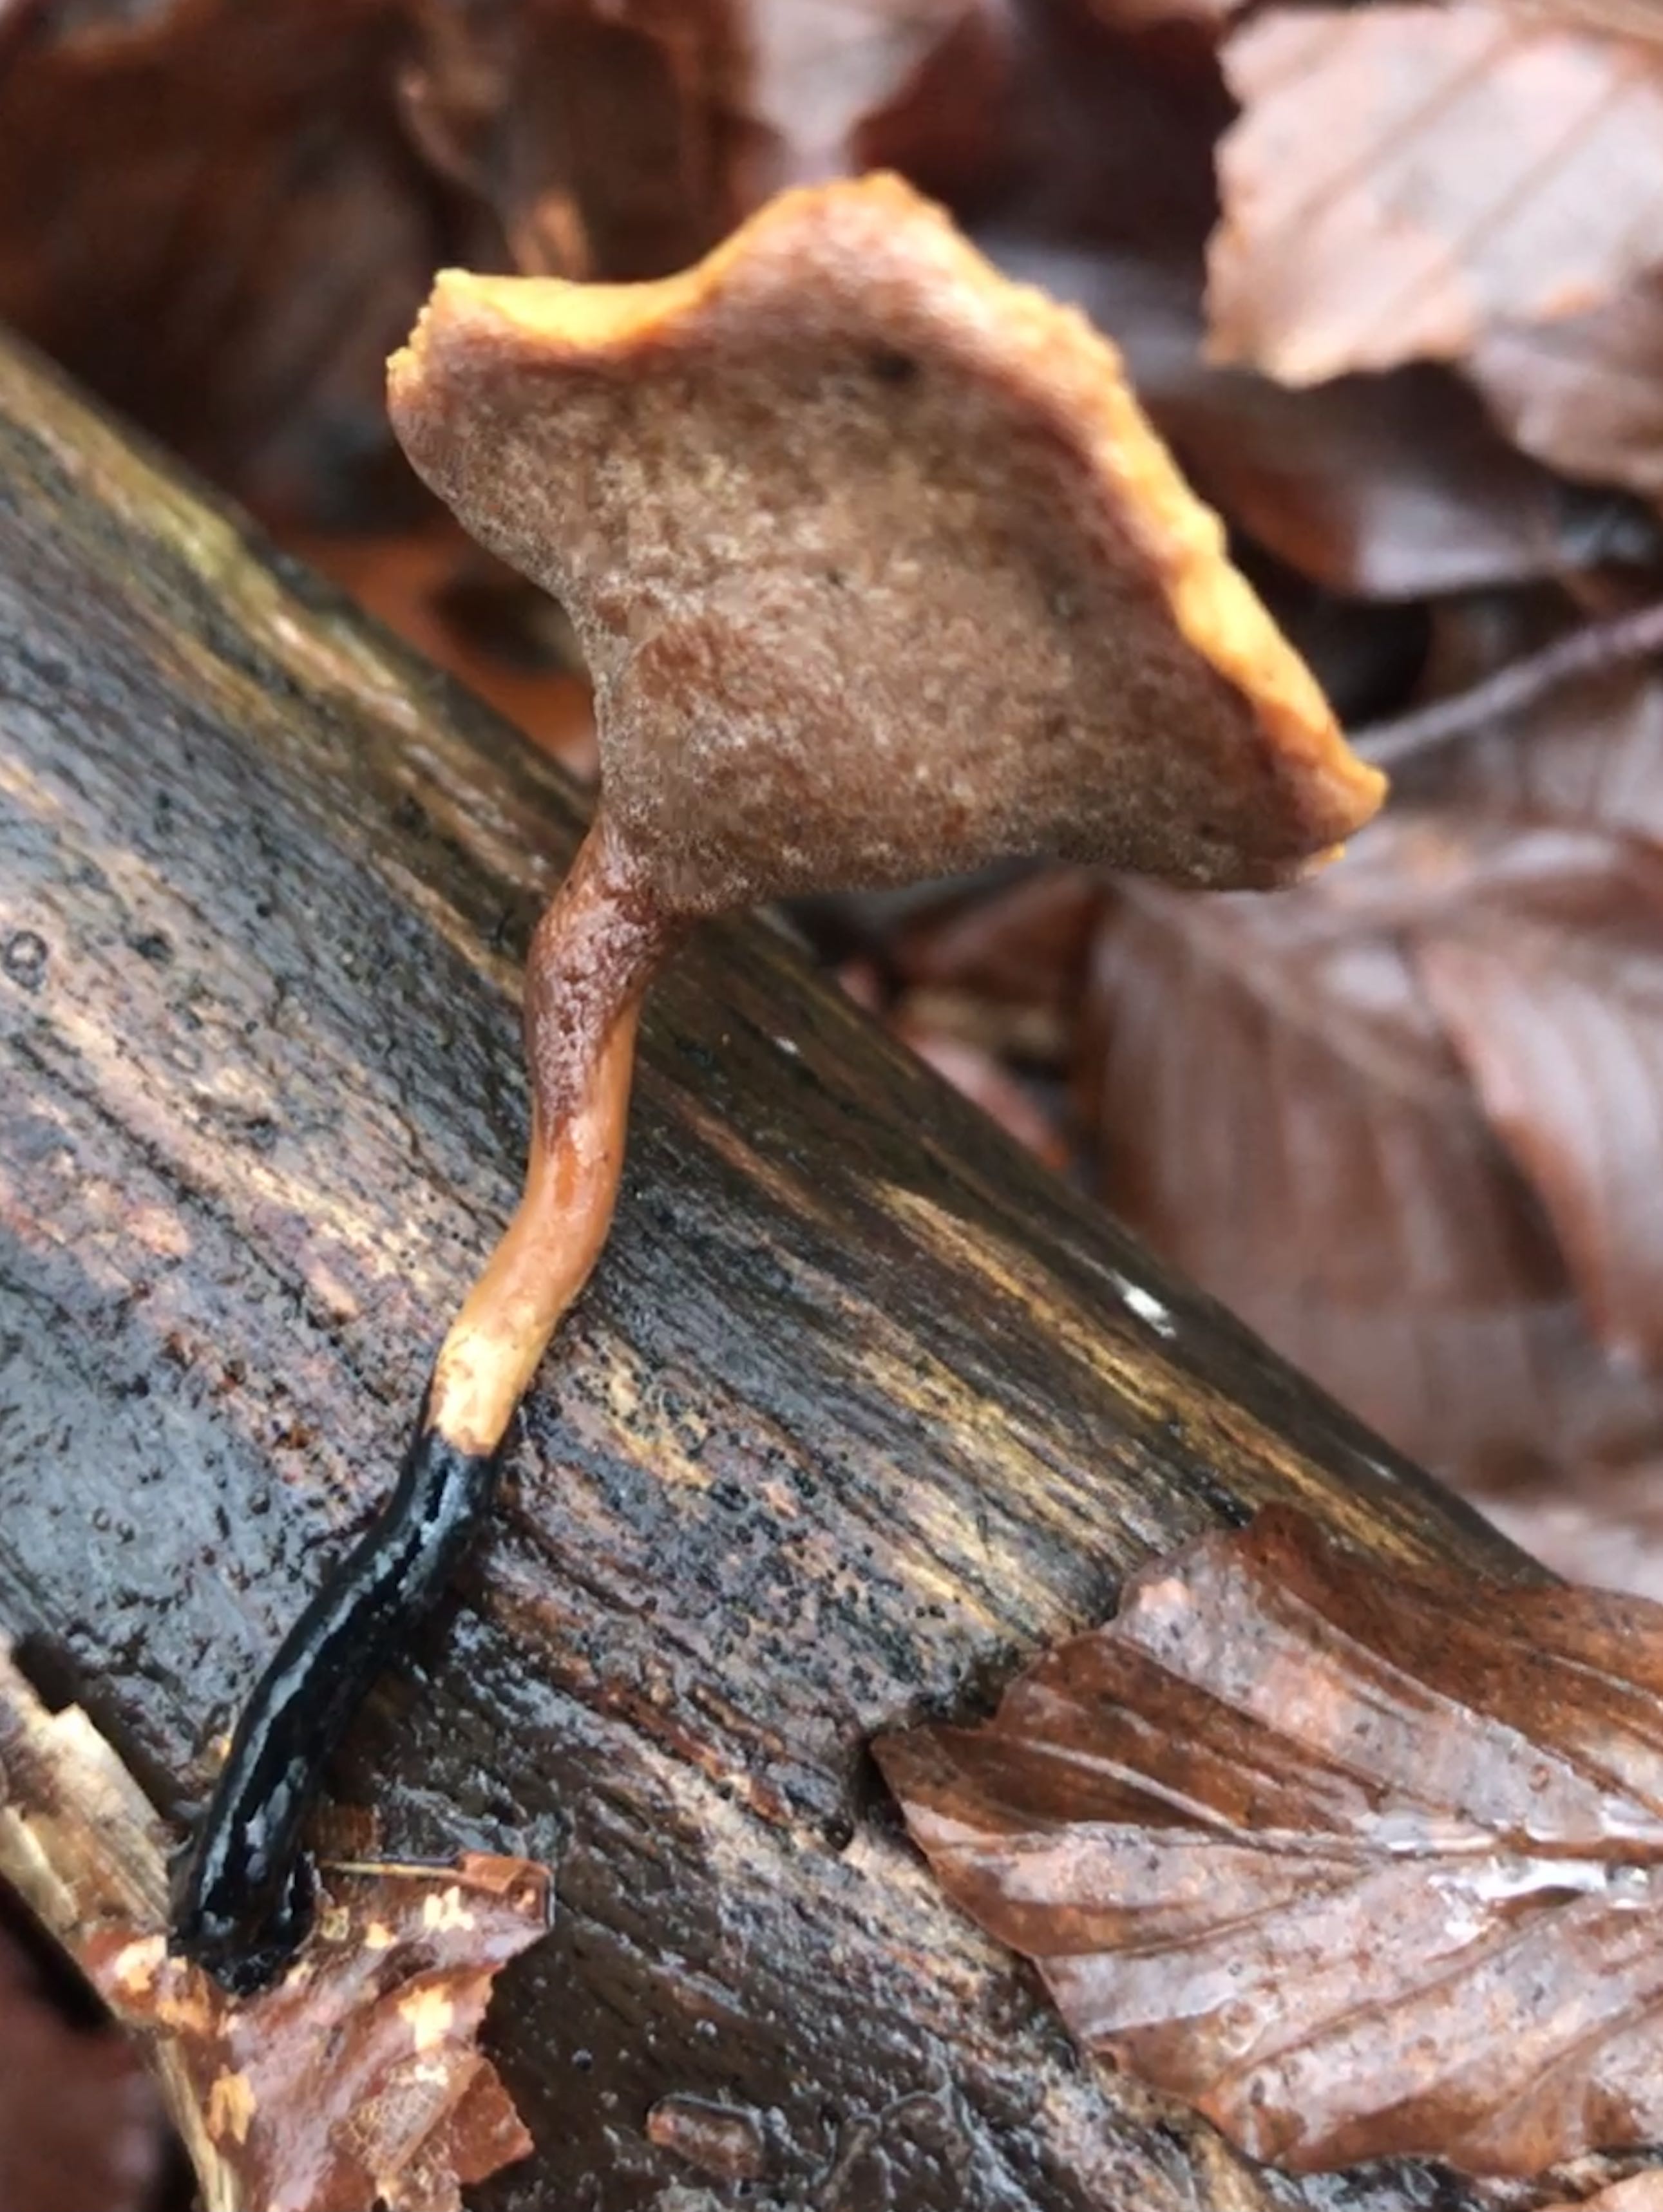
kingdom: Fungi
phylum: Basidiomycota
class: Agaricomycetes
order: Polyporales
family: Polyporaceae
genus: Cerioporus
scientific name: Cerioporus varius
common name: foranderlig stilkporesvamp
